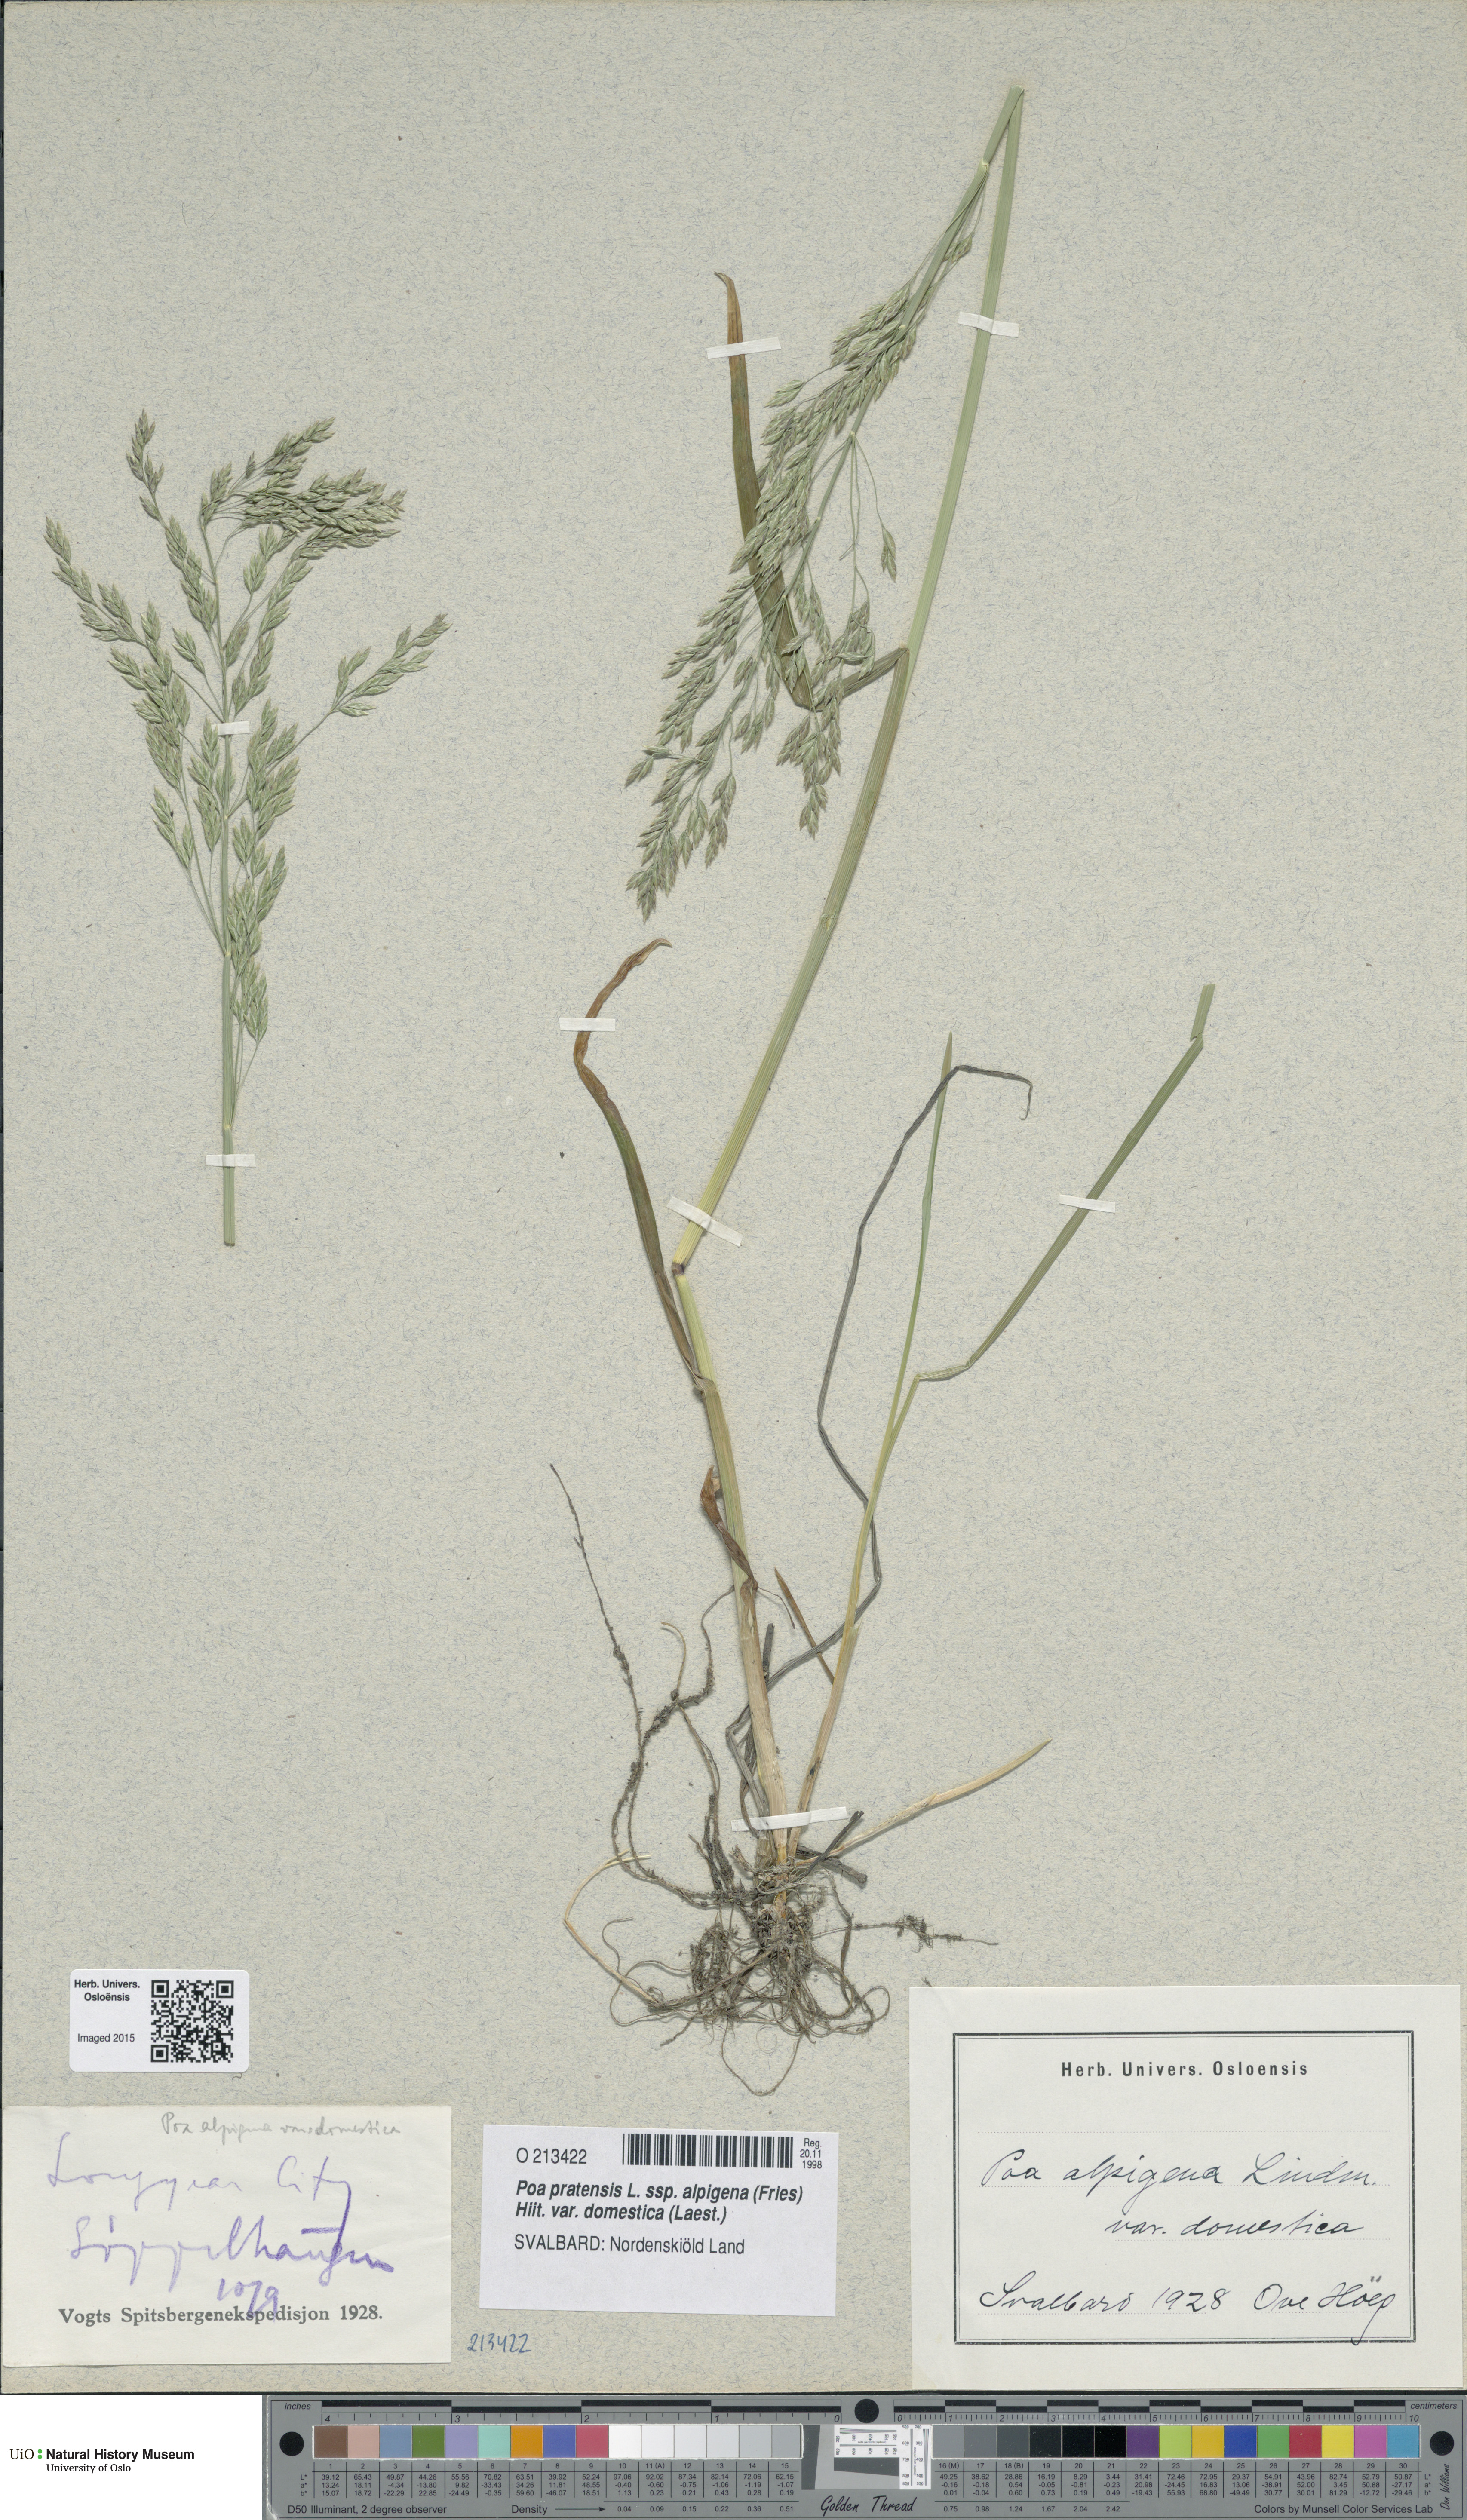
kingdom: Plantae
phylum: Tracheophyta
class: Liliopsida
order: Poales
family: Poaceae
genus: Poa
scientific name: Poa pratensis
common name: Kentucky bluegrass
